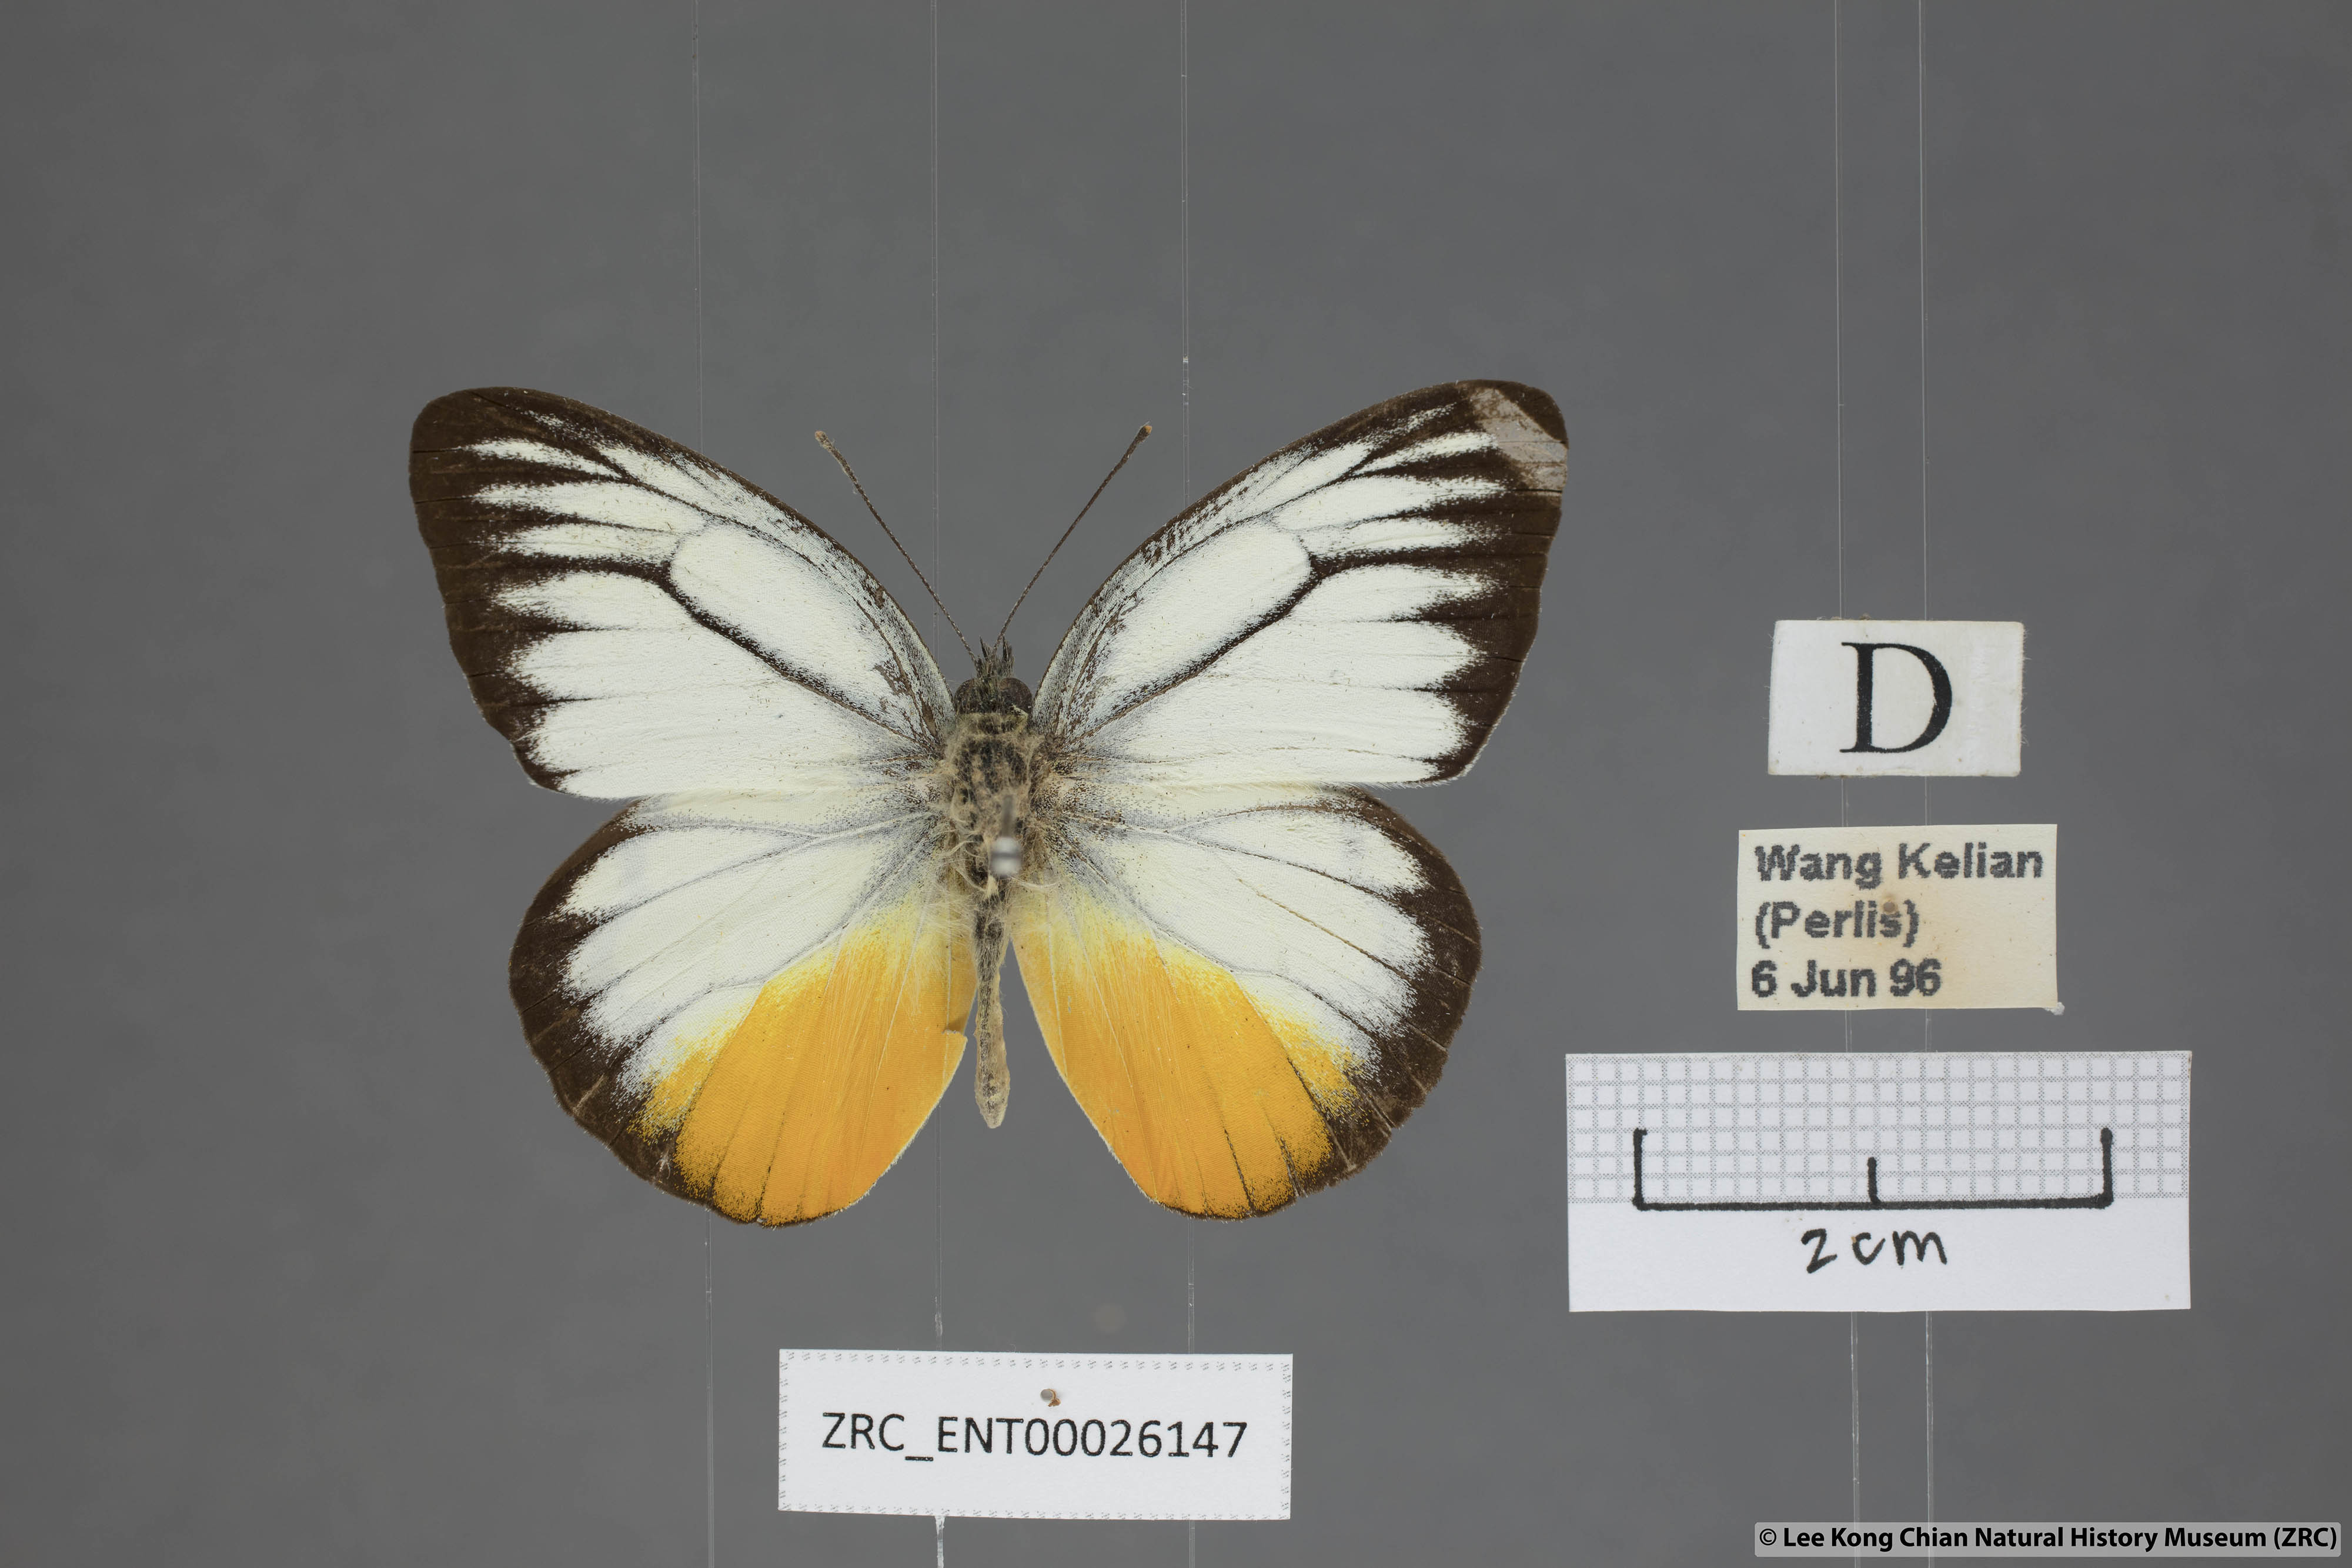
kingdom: Animalia
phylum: Arthropoda
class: Insecta
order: Lepidoptera
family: Pieridae
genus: Cepora
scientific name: Cepora julia
